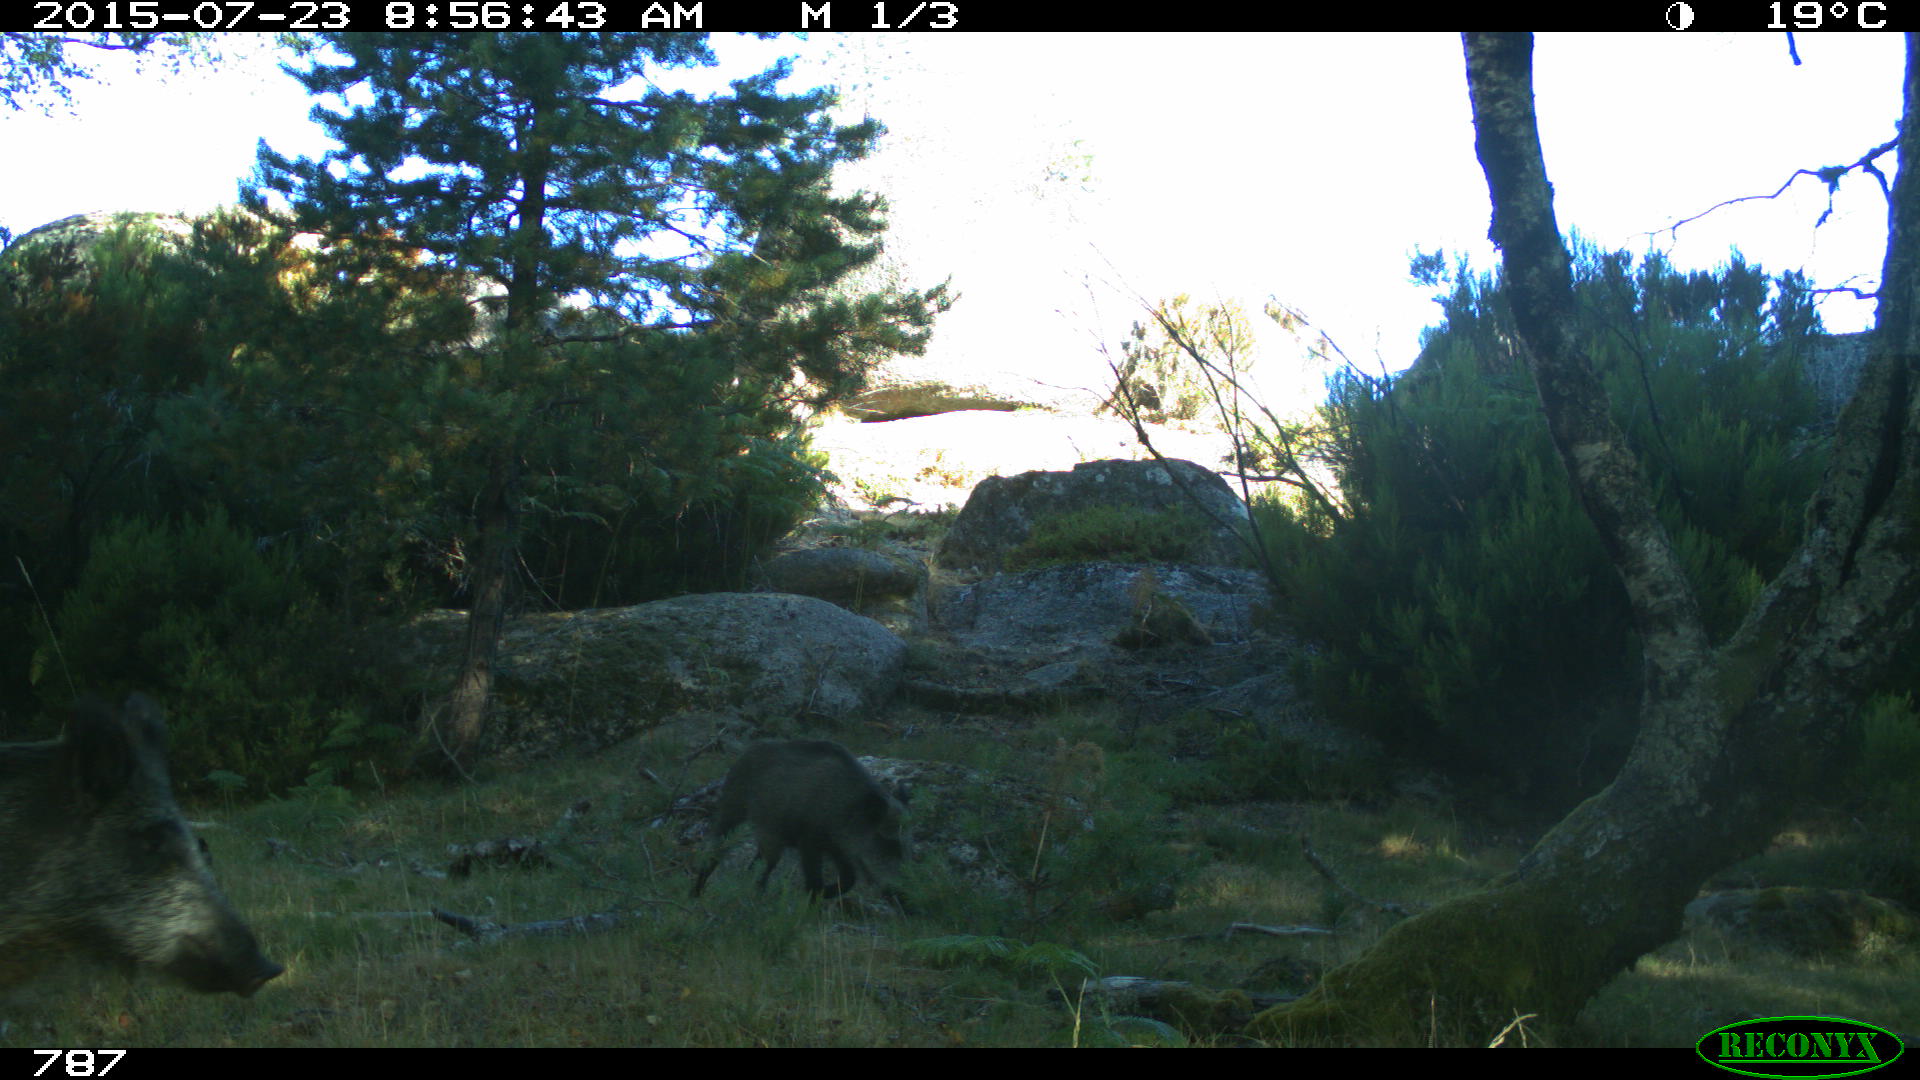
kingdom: Animalia
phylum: Chordata
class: Mammalia
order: Artiodactyla
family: Suidae
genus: Sus
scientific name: Sus scrofa
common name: Wild boar
